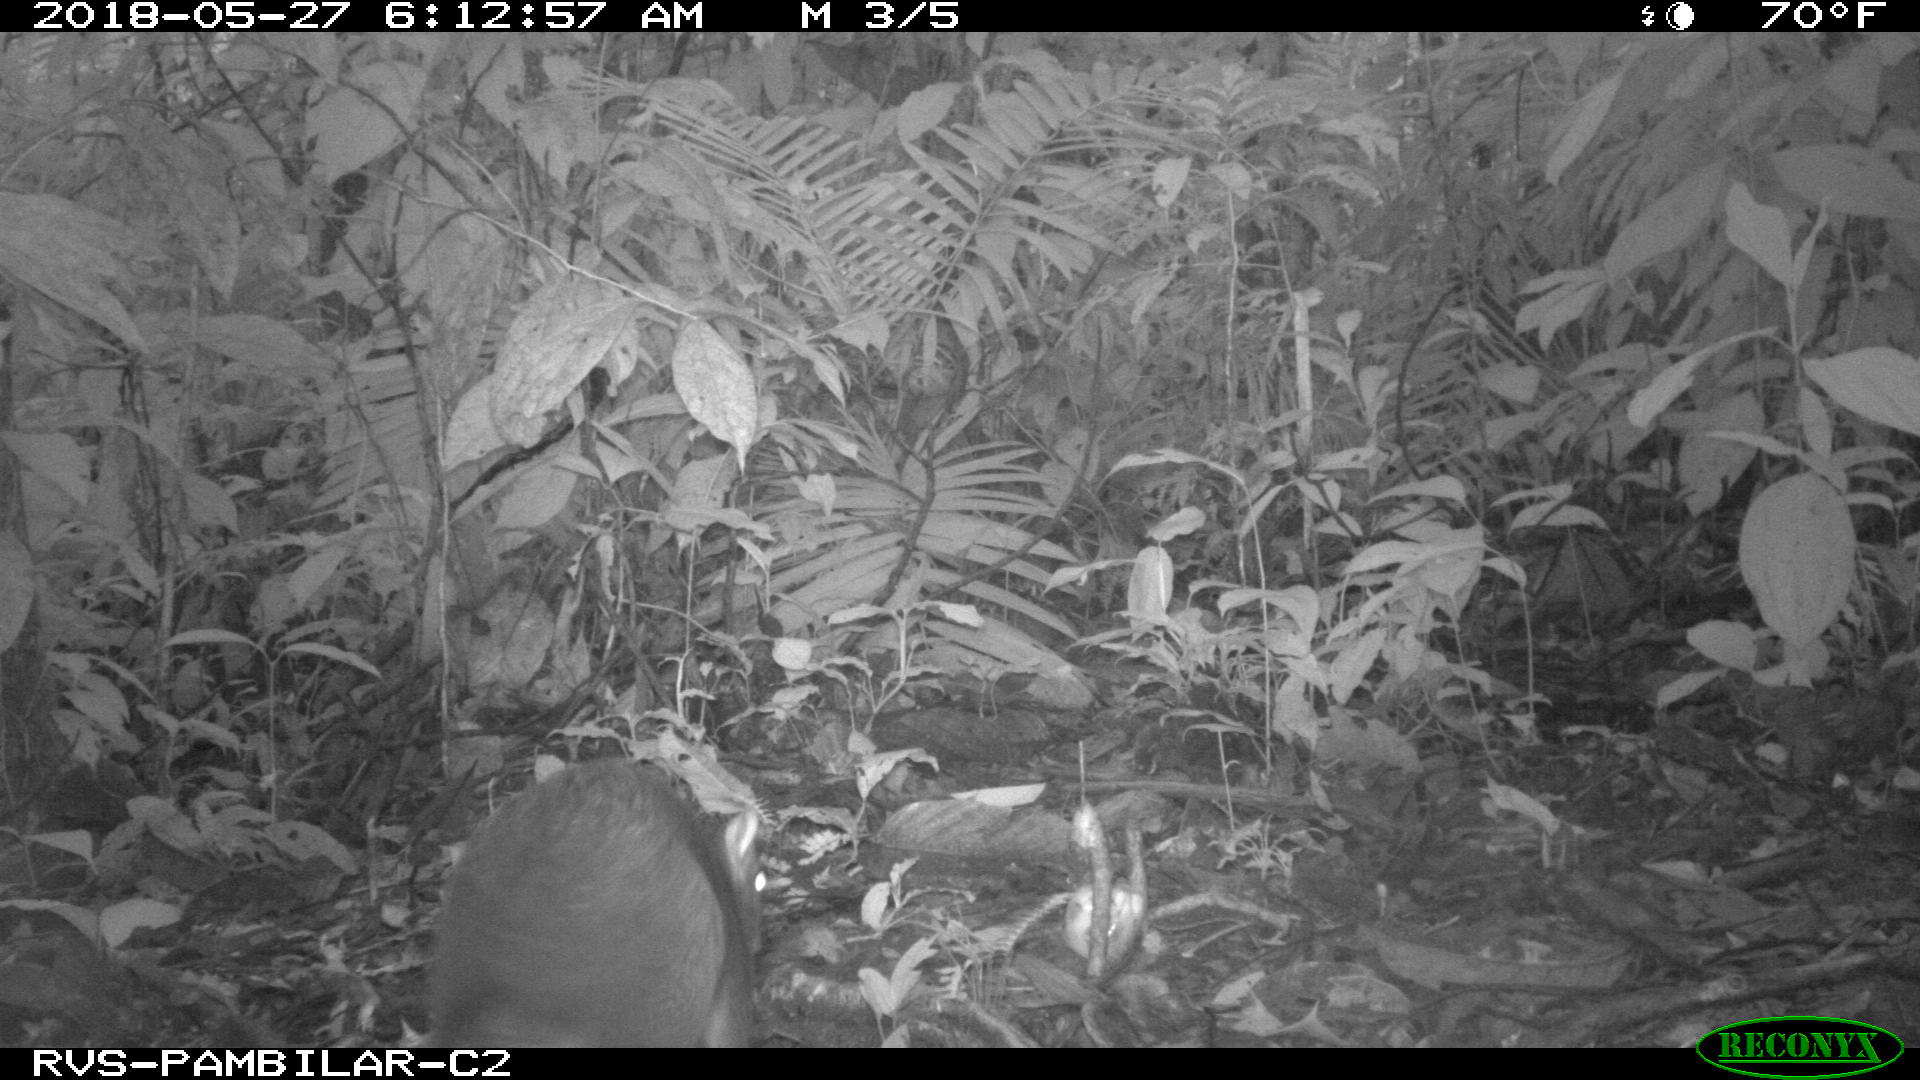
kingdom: Animalia
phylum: Chordata
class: Mammalia
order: Rodentia
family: Dasyproctidae
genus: Dasyprocta
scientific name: Dasyprocta punctata
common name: Central american agouti
